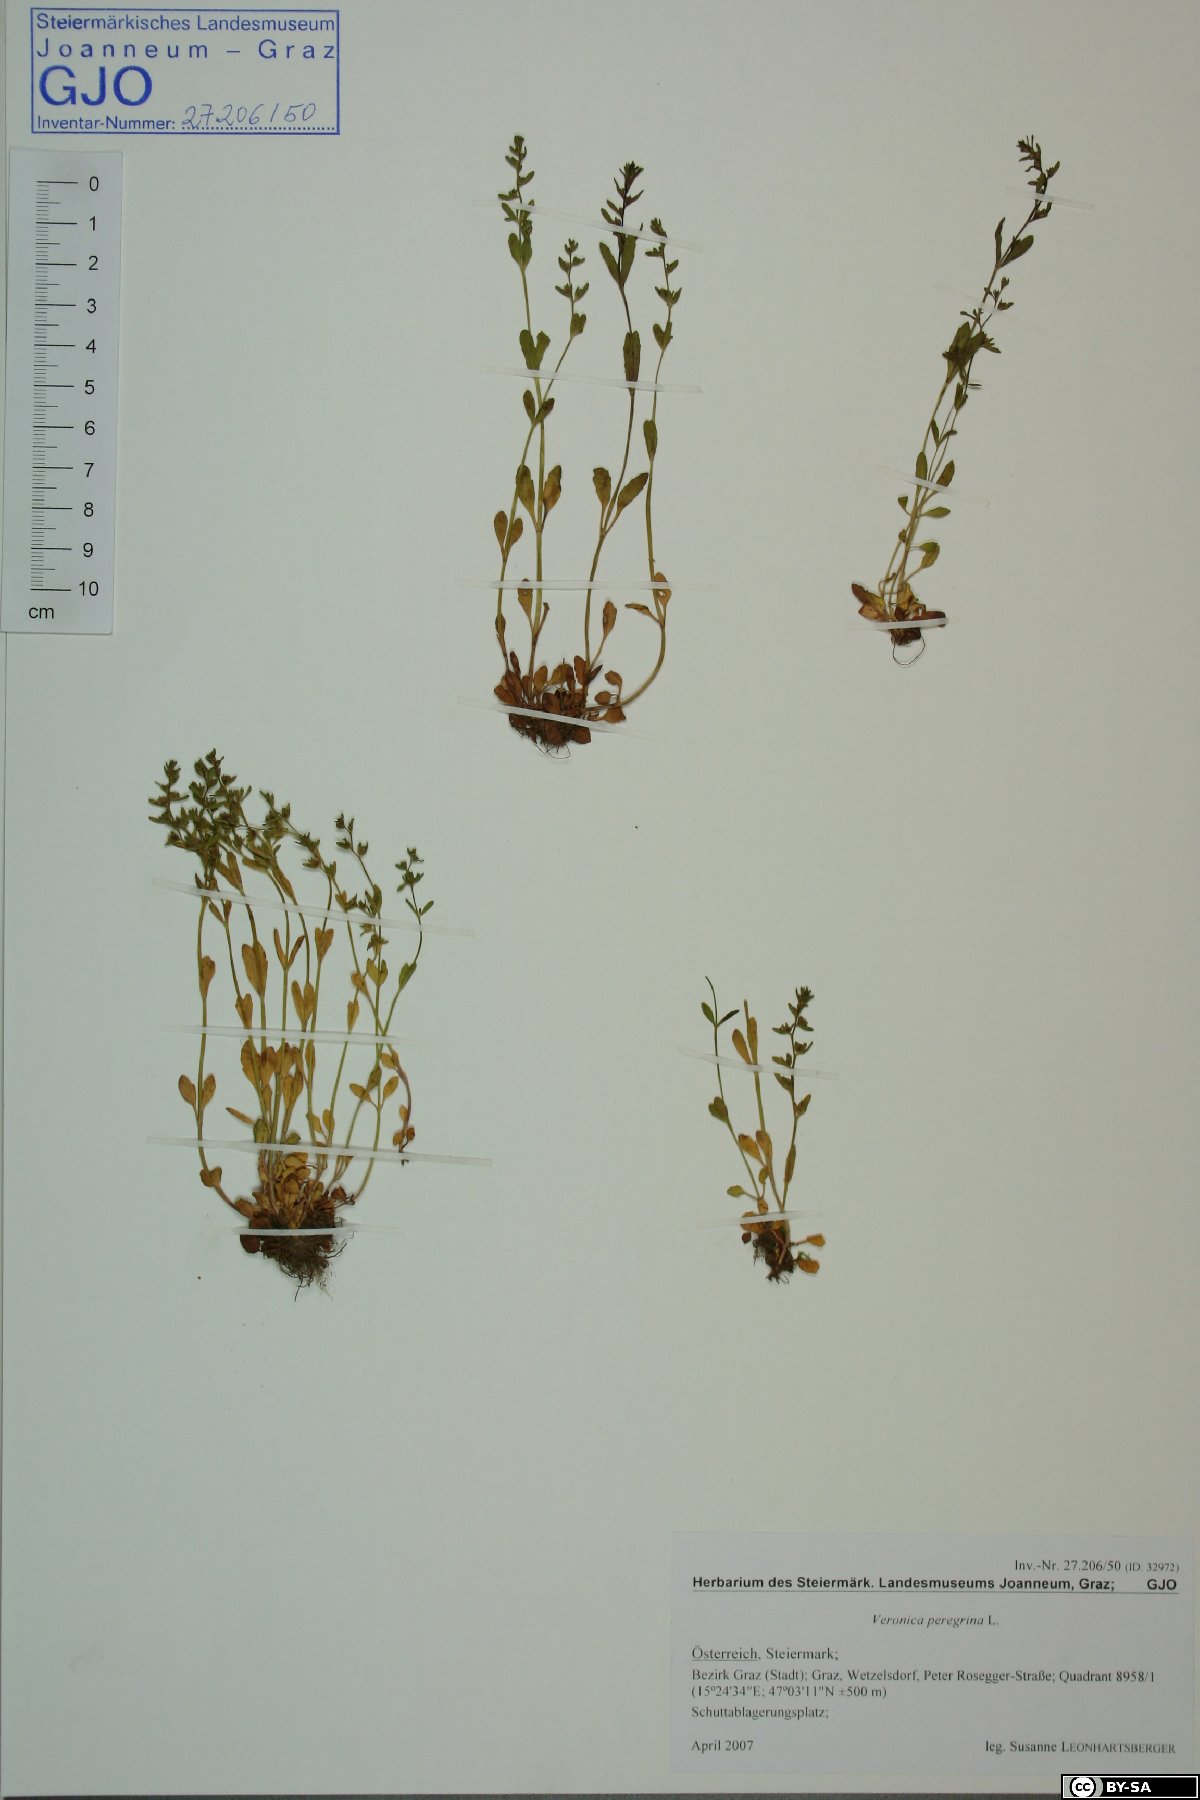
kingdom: Plantae
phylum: Tracheophyta
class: Magnoliopsida
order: Lamiales
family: Plantaginaceae
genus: Veronica
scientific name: Veronica peregrina
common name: Neckweed
